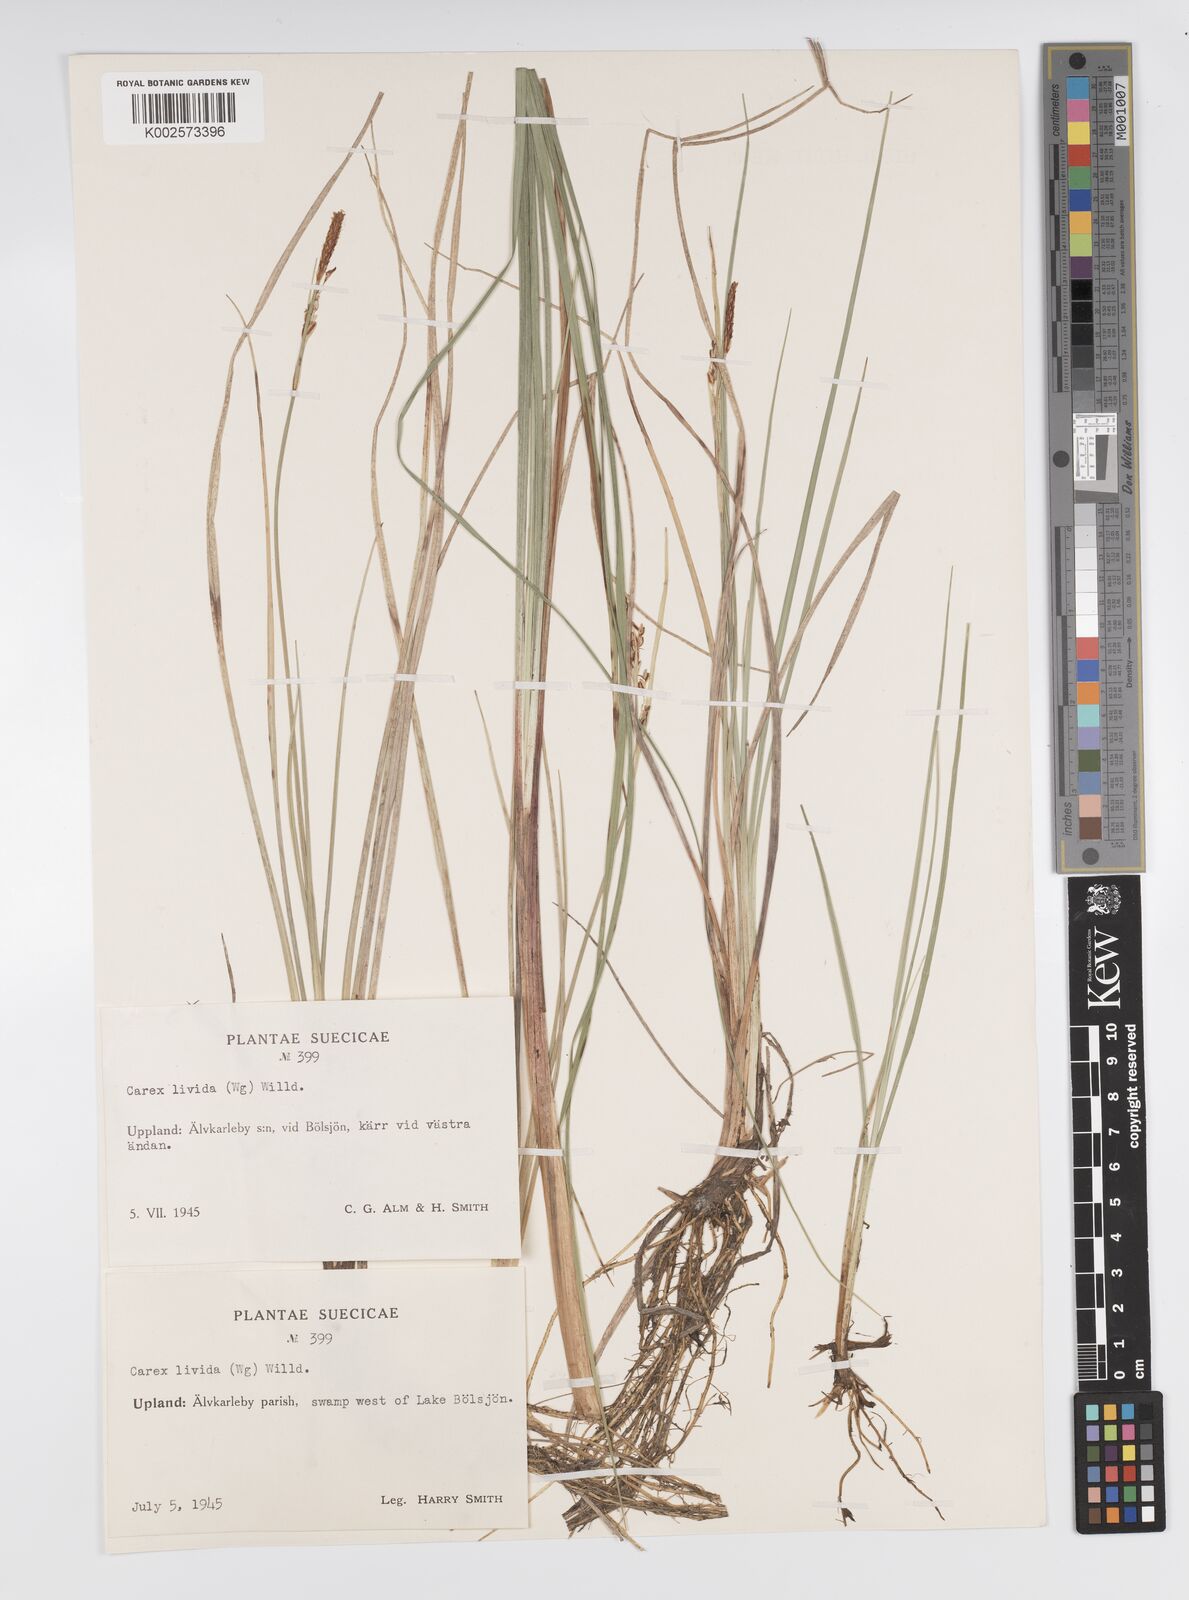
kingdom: Plantae
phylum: Tracheophyta
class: Liliopsida
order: Poales
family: Cyperaceae
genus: Carex
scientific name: Carex livida
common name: Livid sedge
